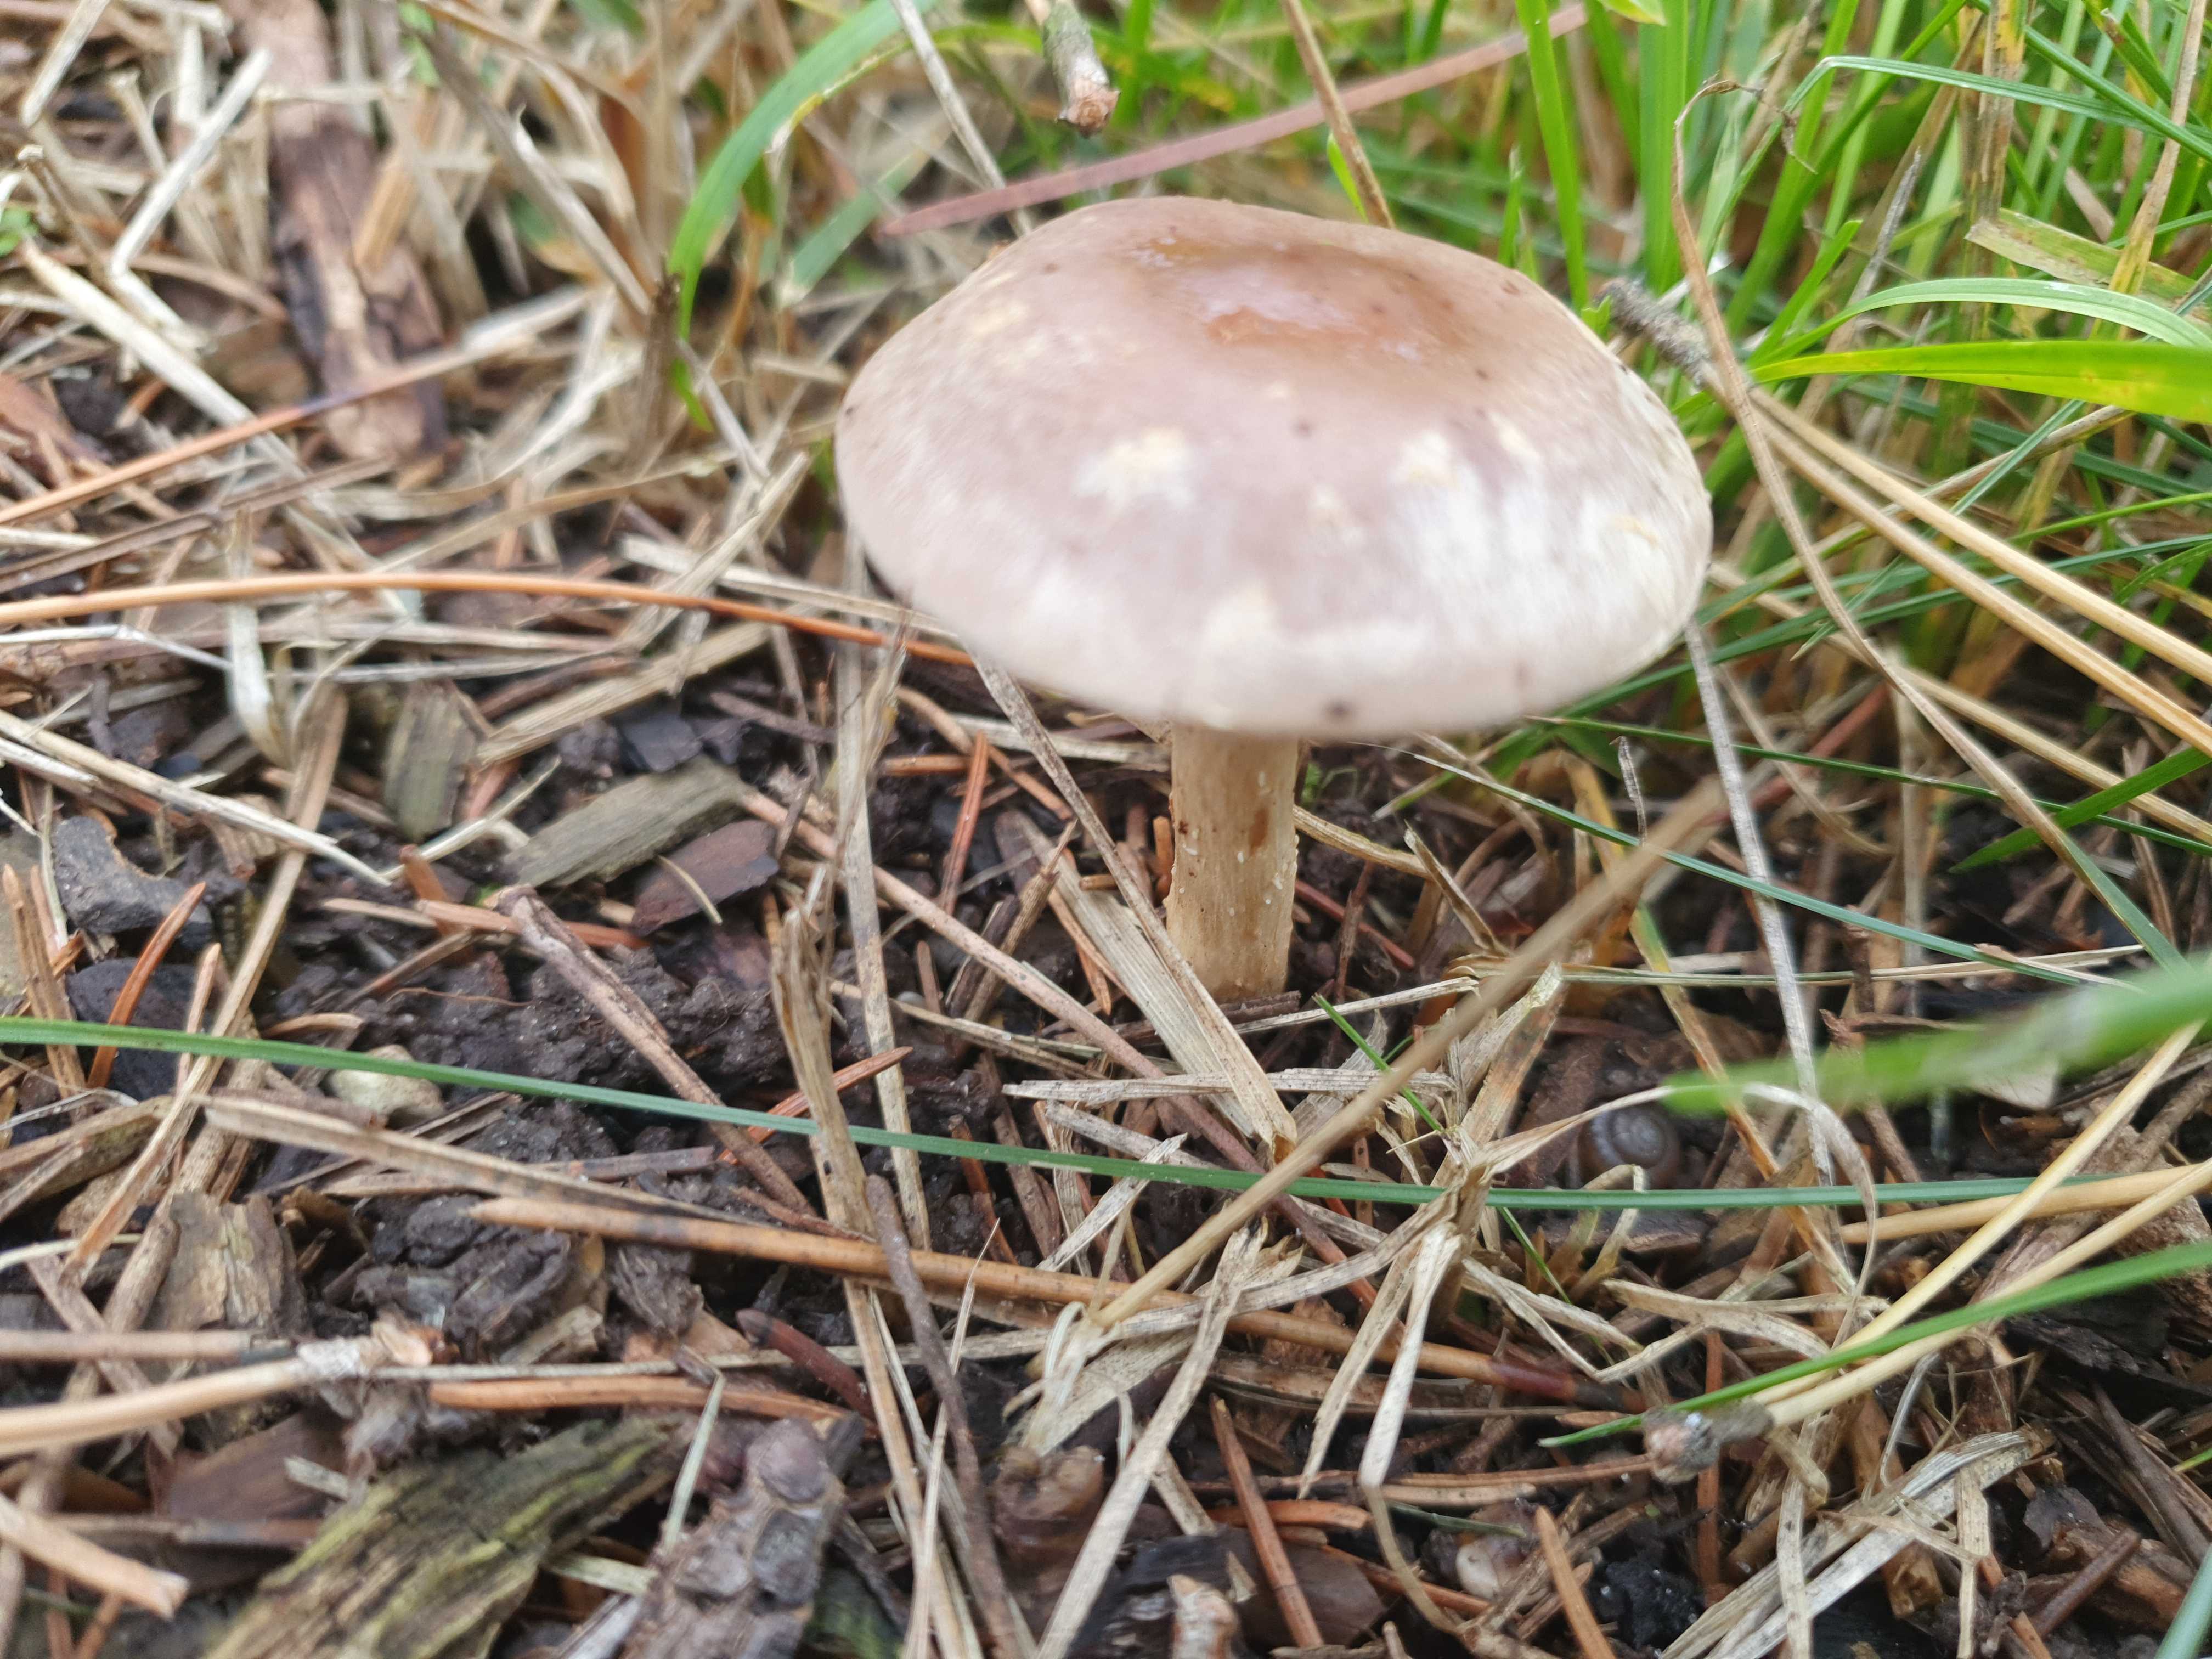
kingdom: Fungi
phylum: Basidiomycota
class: Agaricomycetes
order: Agaricales
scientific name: Agaricales
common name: champignonordenen
